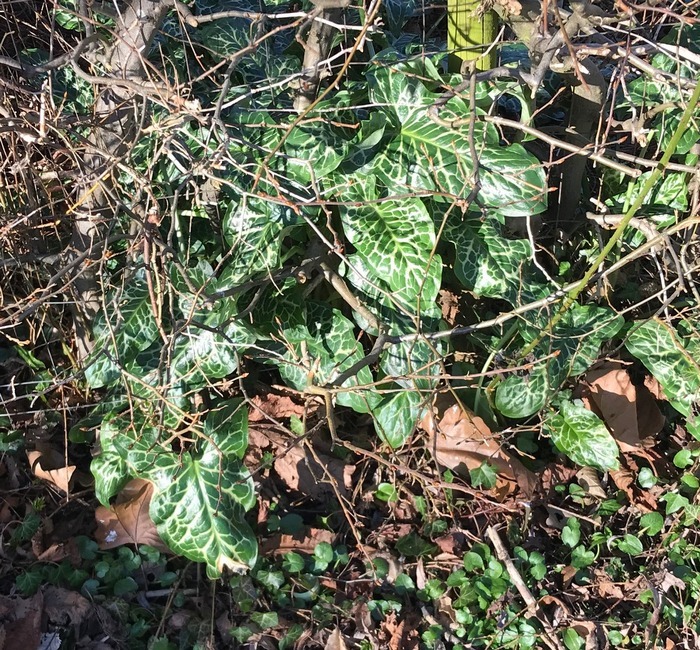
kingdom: Plantae
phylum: Tracheophyta
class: Liliopsida
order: Alismatales
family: Araceae
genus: Arum
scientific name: Arum italicum
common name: Italiensk arum
